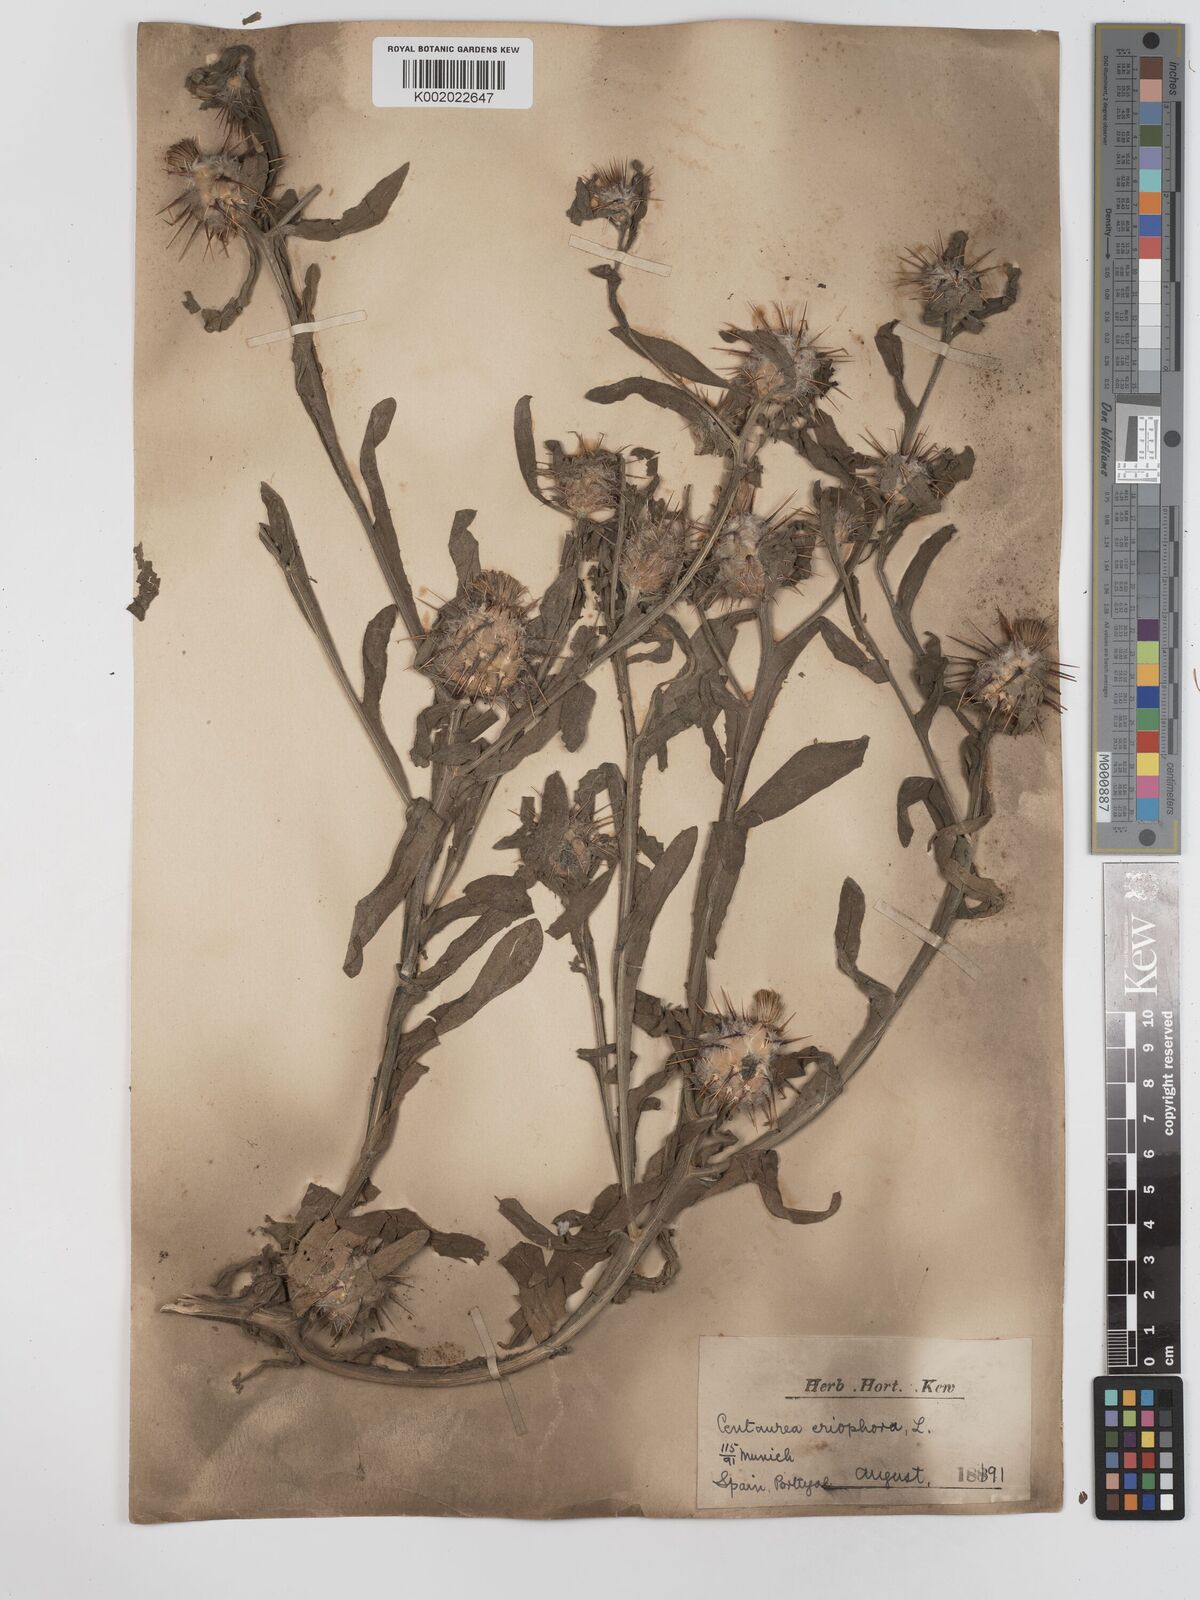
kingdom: Plantae
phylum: Tracheophyta
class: Magnoliopsida
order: Asterales
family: Asteraceae
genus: Centaurea
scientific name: Centaurea eriophora
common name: Wild sandheath
